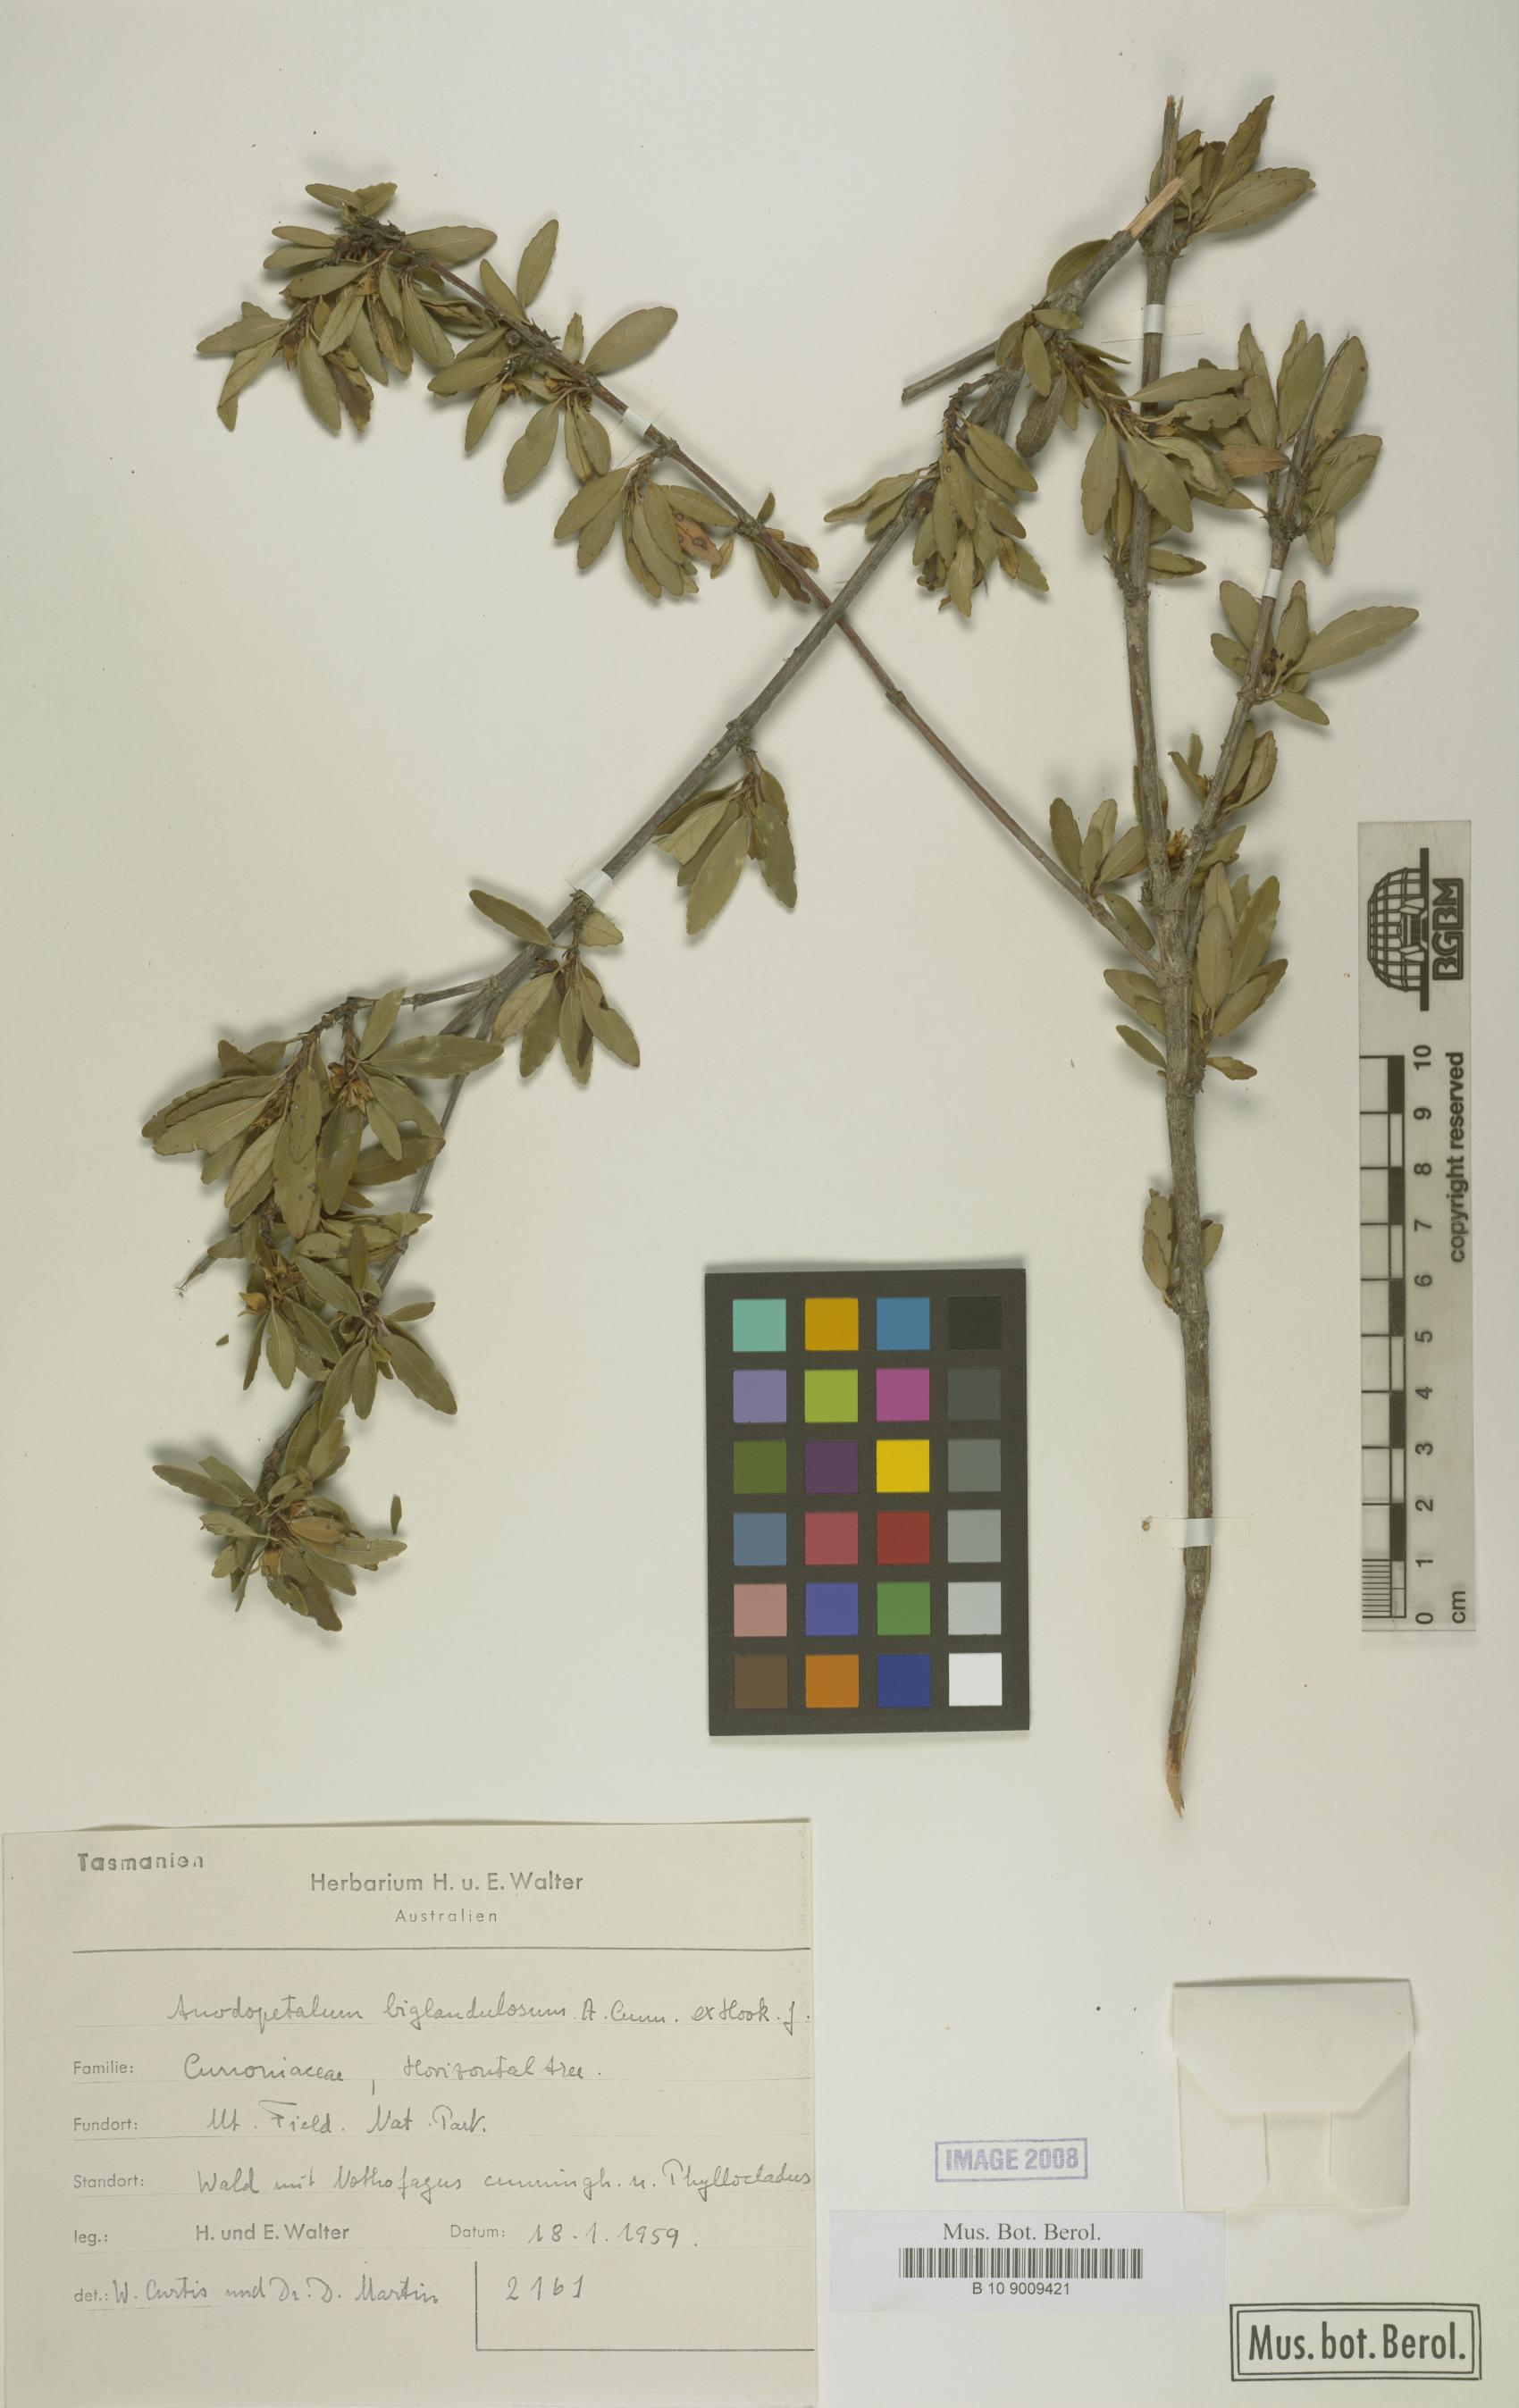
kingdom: Plantae
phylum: Tracheophyta
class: Magnoliopsida
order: Oxalidales
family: Cunoniaceae
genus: Anodopetalum
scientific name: Anodopetalum biglandulosum
